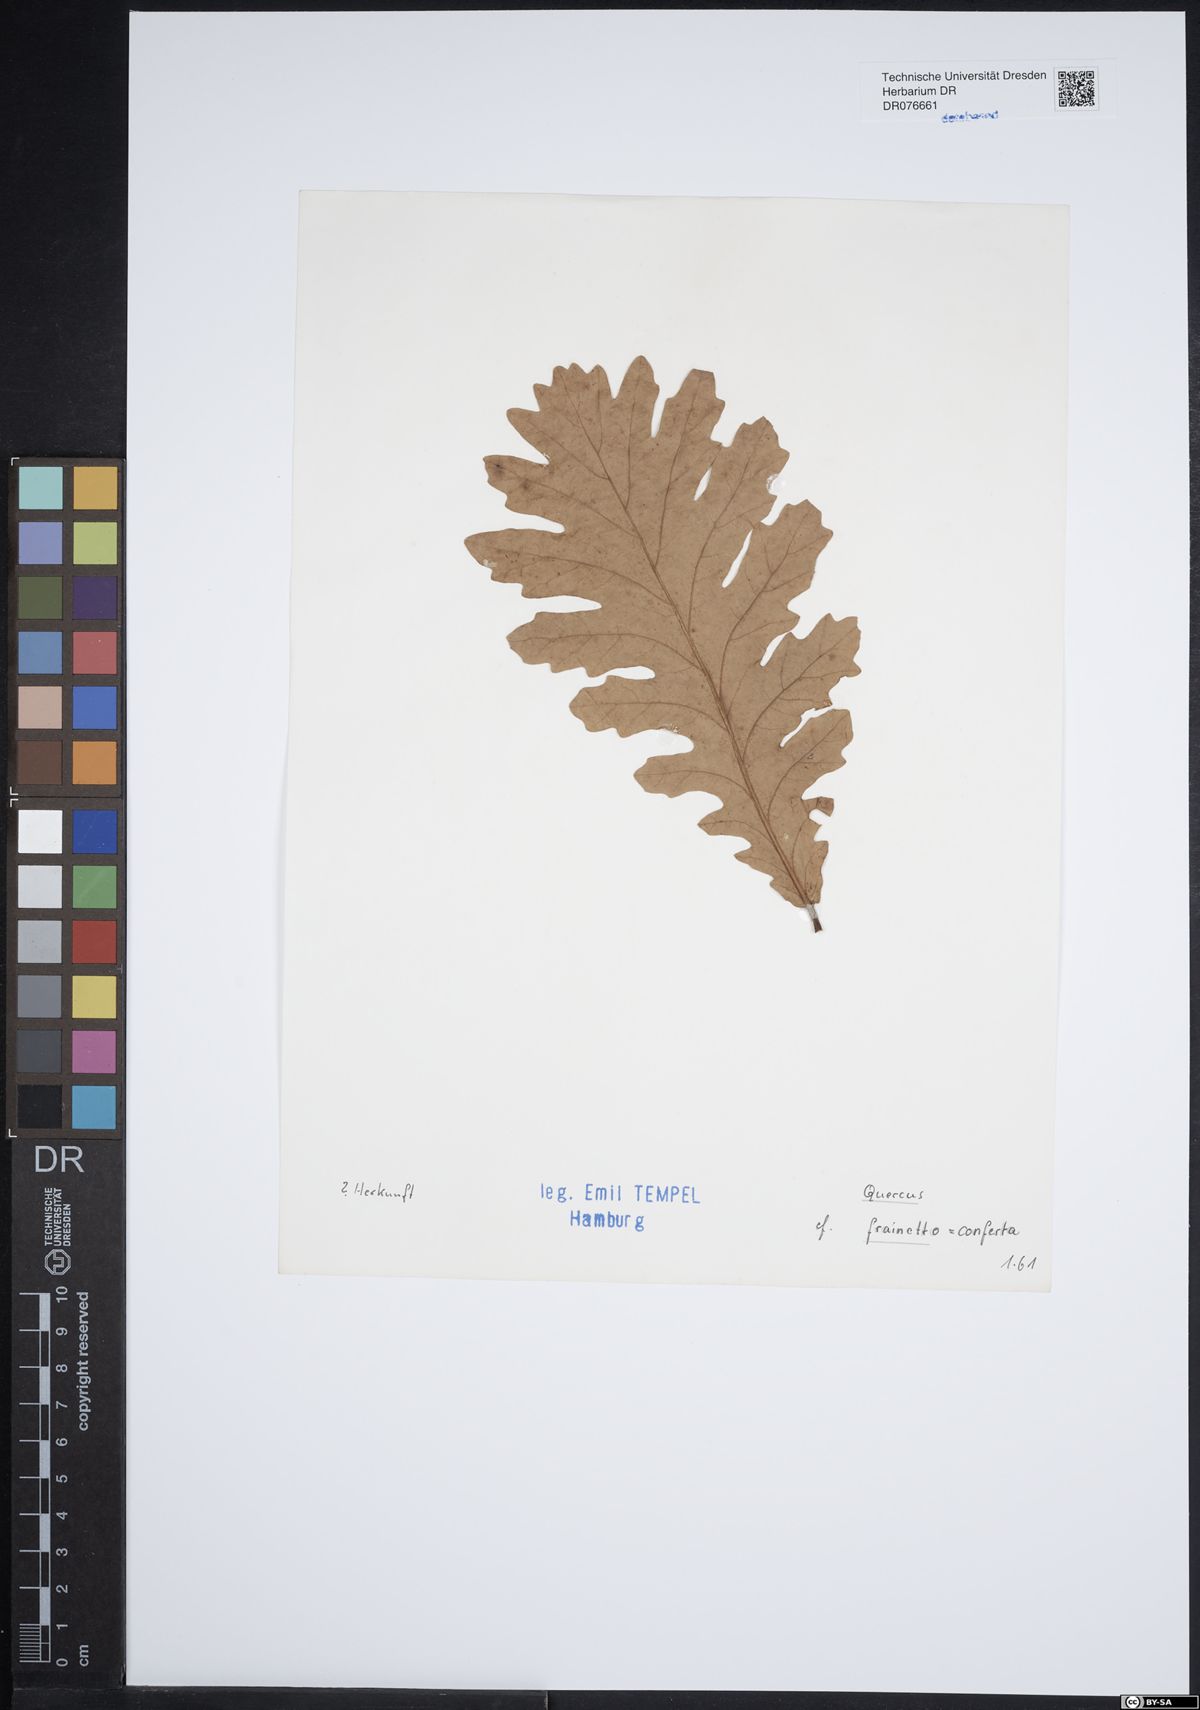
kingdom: Plantae
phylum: Tracheophyta
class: Magnoliopsida
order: Fagales
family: Fagaceae
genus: Quercus
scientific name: Quercus conferta
